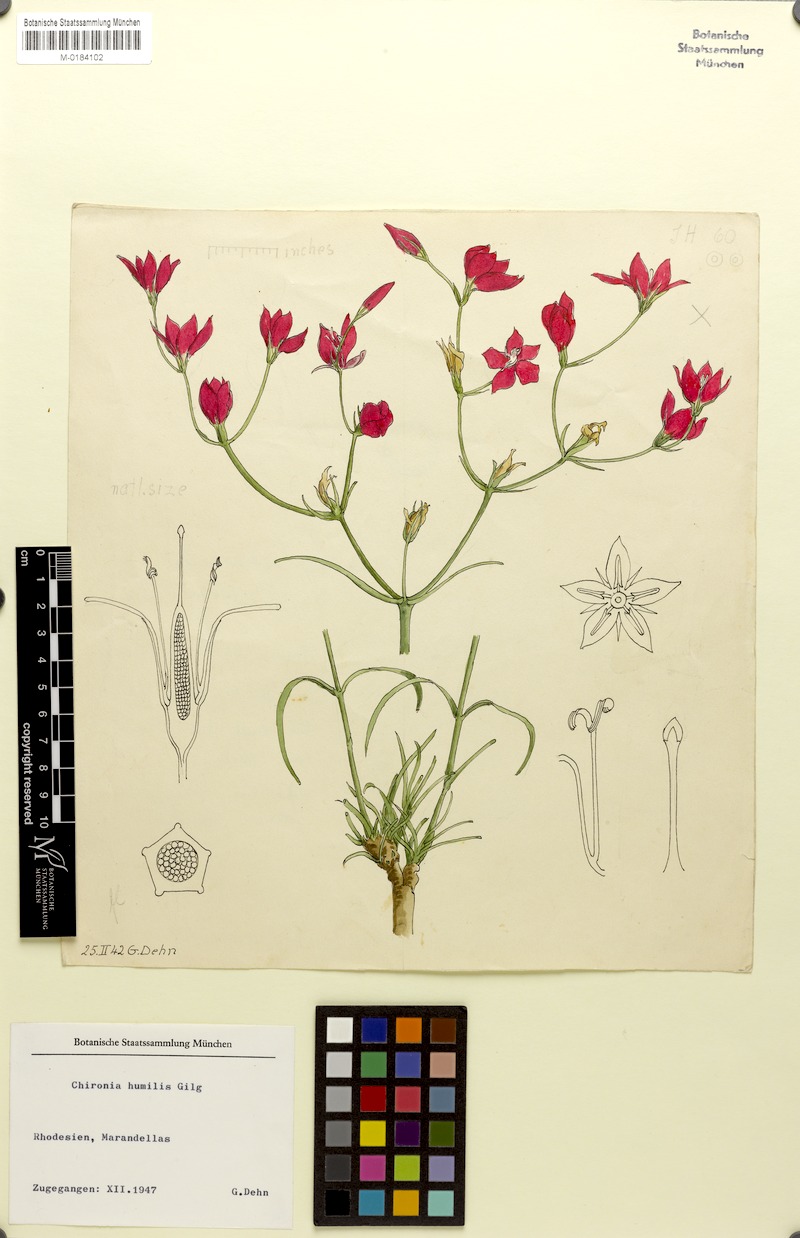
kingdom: Plantae
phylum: Tracheophyta
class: Magnoliopsida
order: Gentianales
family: Gentianaceae
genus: Chironia
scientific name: Chironia purpurascens
